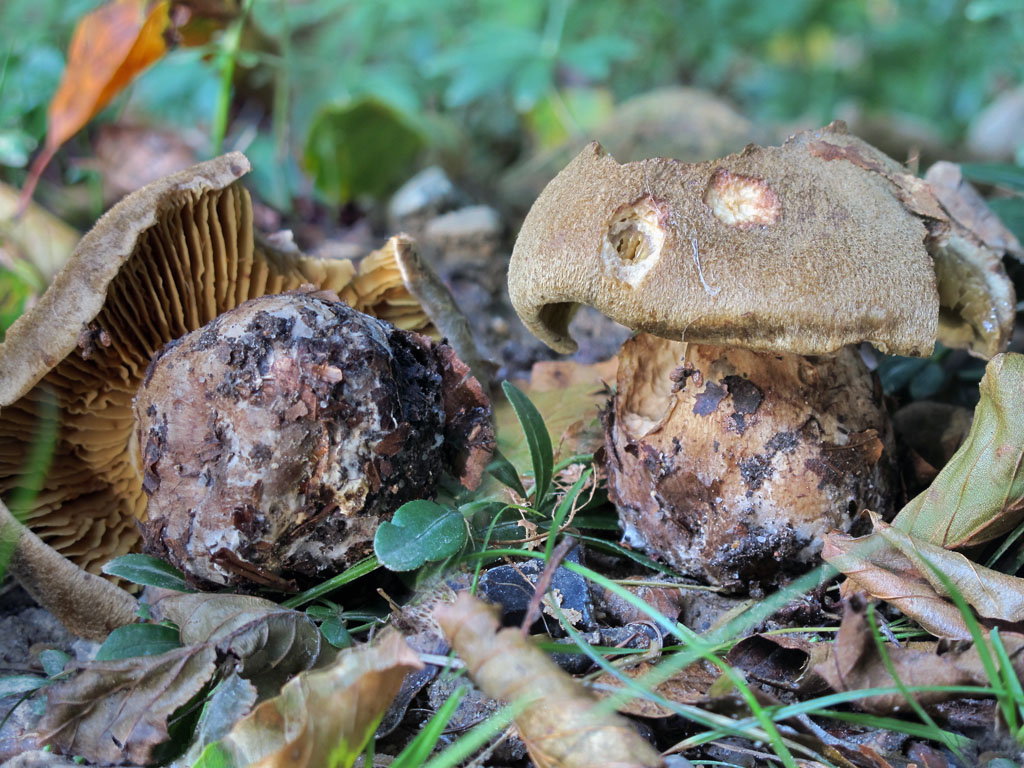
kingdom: Fungi
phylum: Basidiomycota
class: Agaricomycetes
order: Agaricales
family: Cortinariaceae
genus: Cortinarius
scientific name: Cortinarius cotoneus
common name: ulden slørhat
